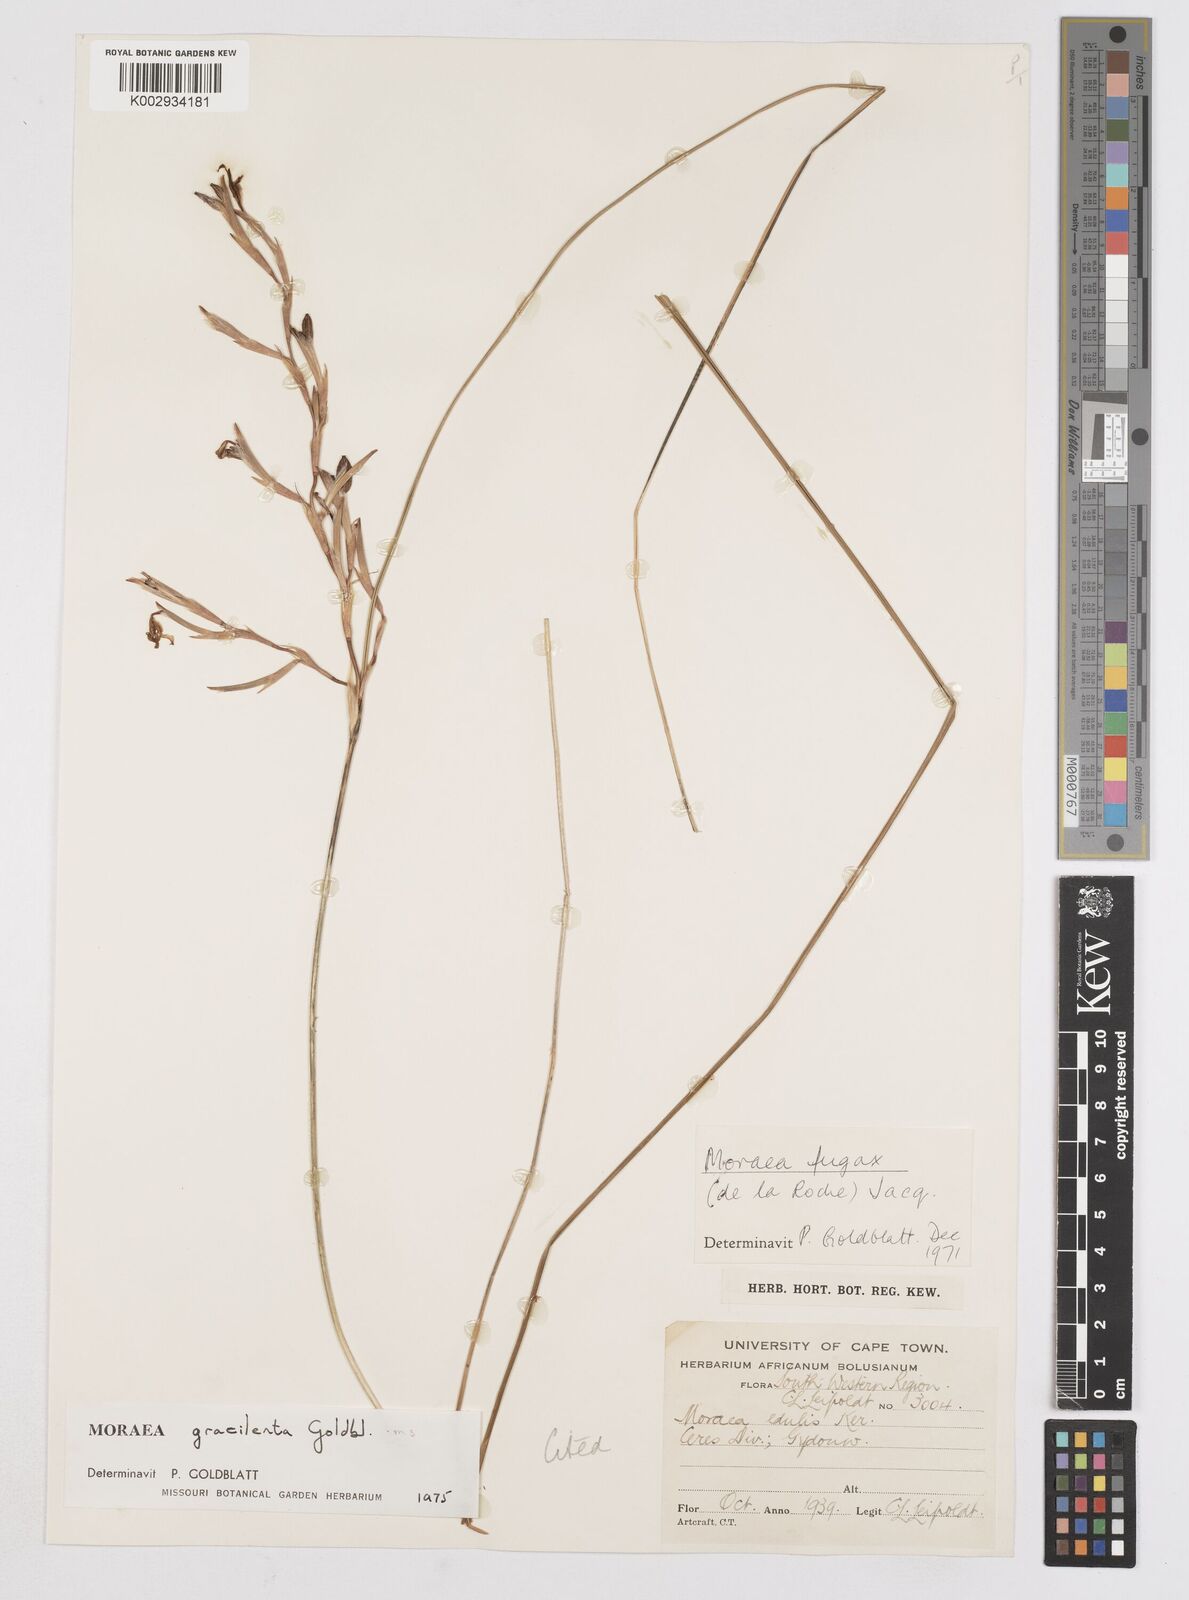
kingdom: Plantae
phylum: Tracheophyta
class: Liliopsida
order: Asparagales
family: Iridaceae
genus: Moraea
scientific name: Moraea gracilenta
